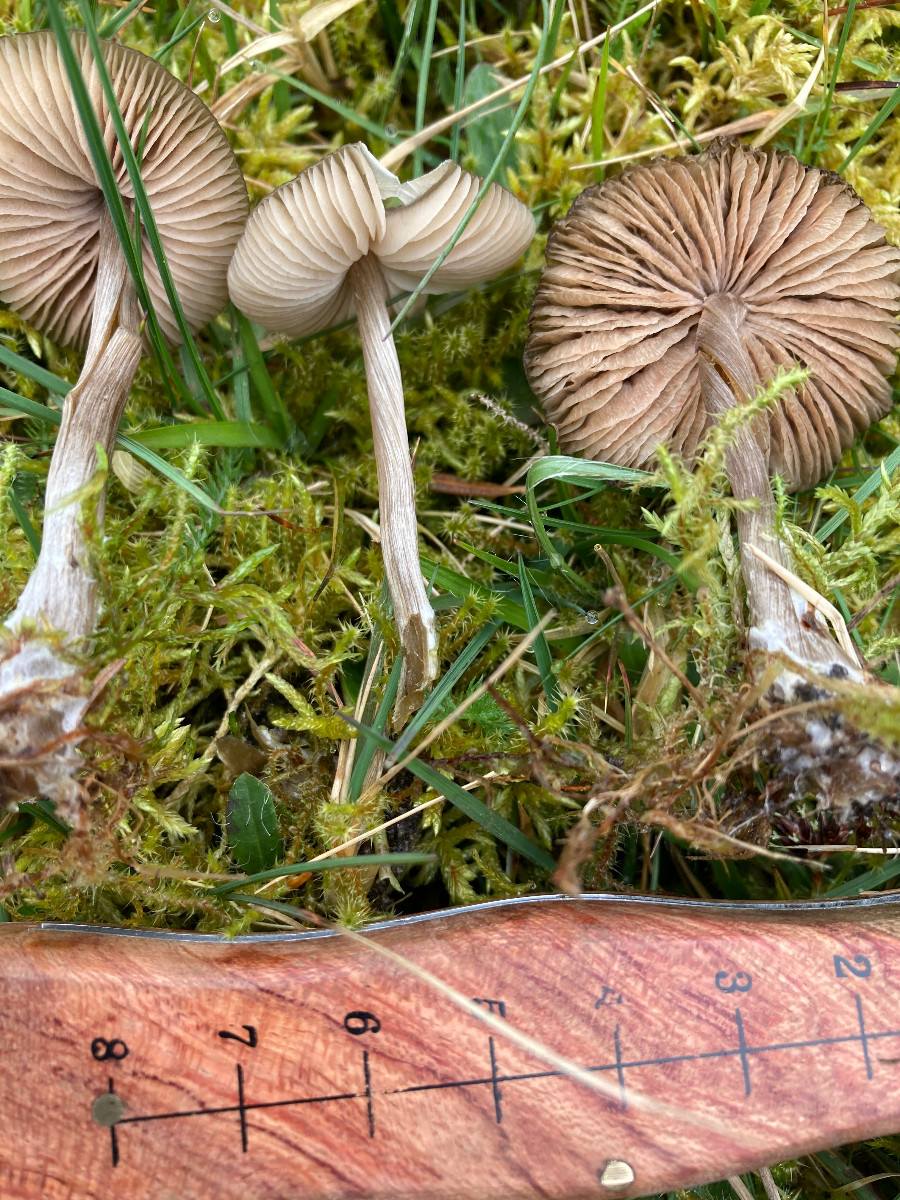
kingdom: Fungi
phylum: Basidiomycota
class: Agaricomycetes
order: Agaricales
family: Entolomataceae
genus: Entoloma
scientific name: Entoloma
